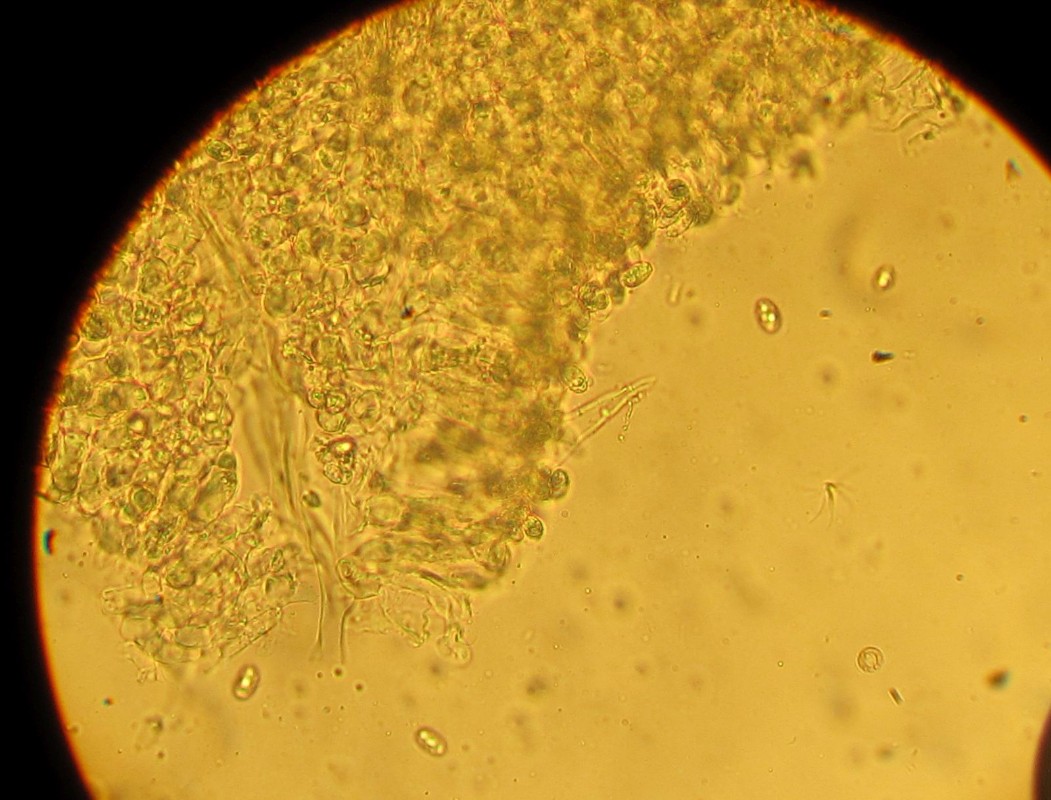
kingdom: Fungi
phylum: Basidiomycota
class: Agaricomycetes
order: Agaricales
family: Tricholomataceae
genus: Melanoleuca
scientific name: Melanoleuca polioleuca
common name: almindelig munkehat
